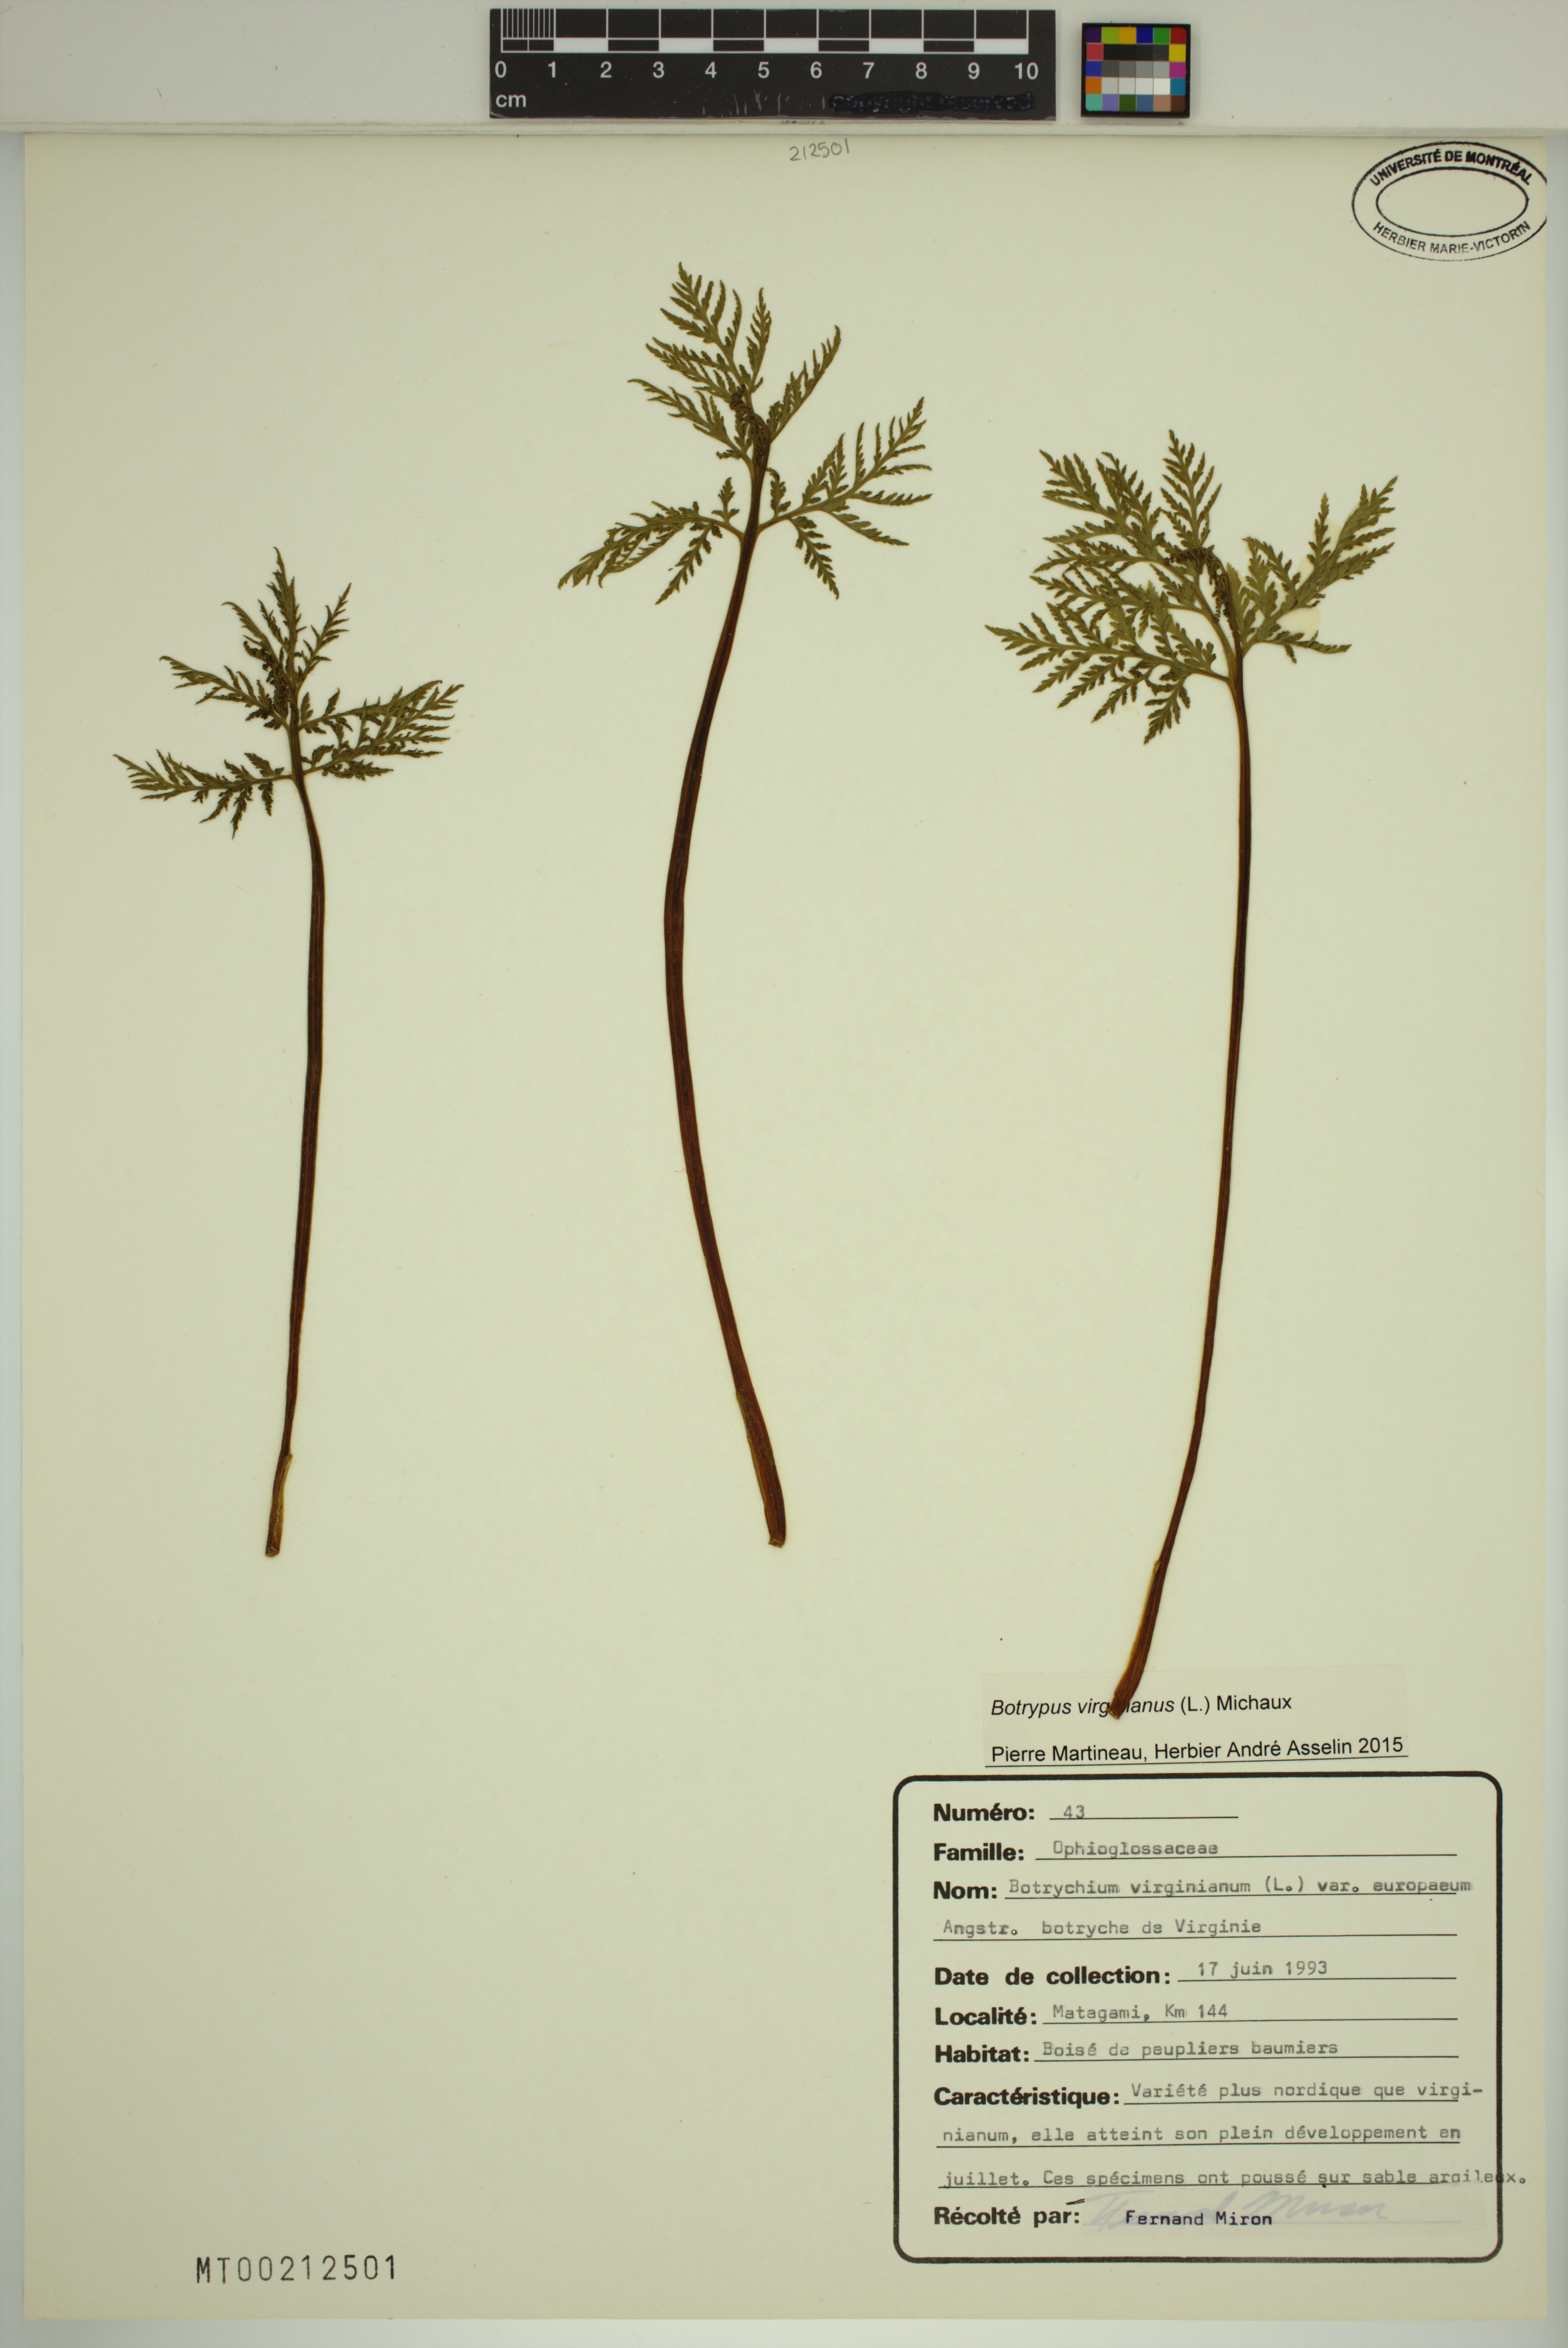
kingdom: Plantae
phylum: Tracheophyta
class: Polypodiopsida
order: Ophioglossales
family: Ophioglossaceae
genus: Botrypus
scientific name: Botrypus virginianus
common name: Common grapefern
